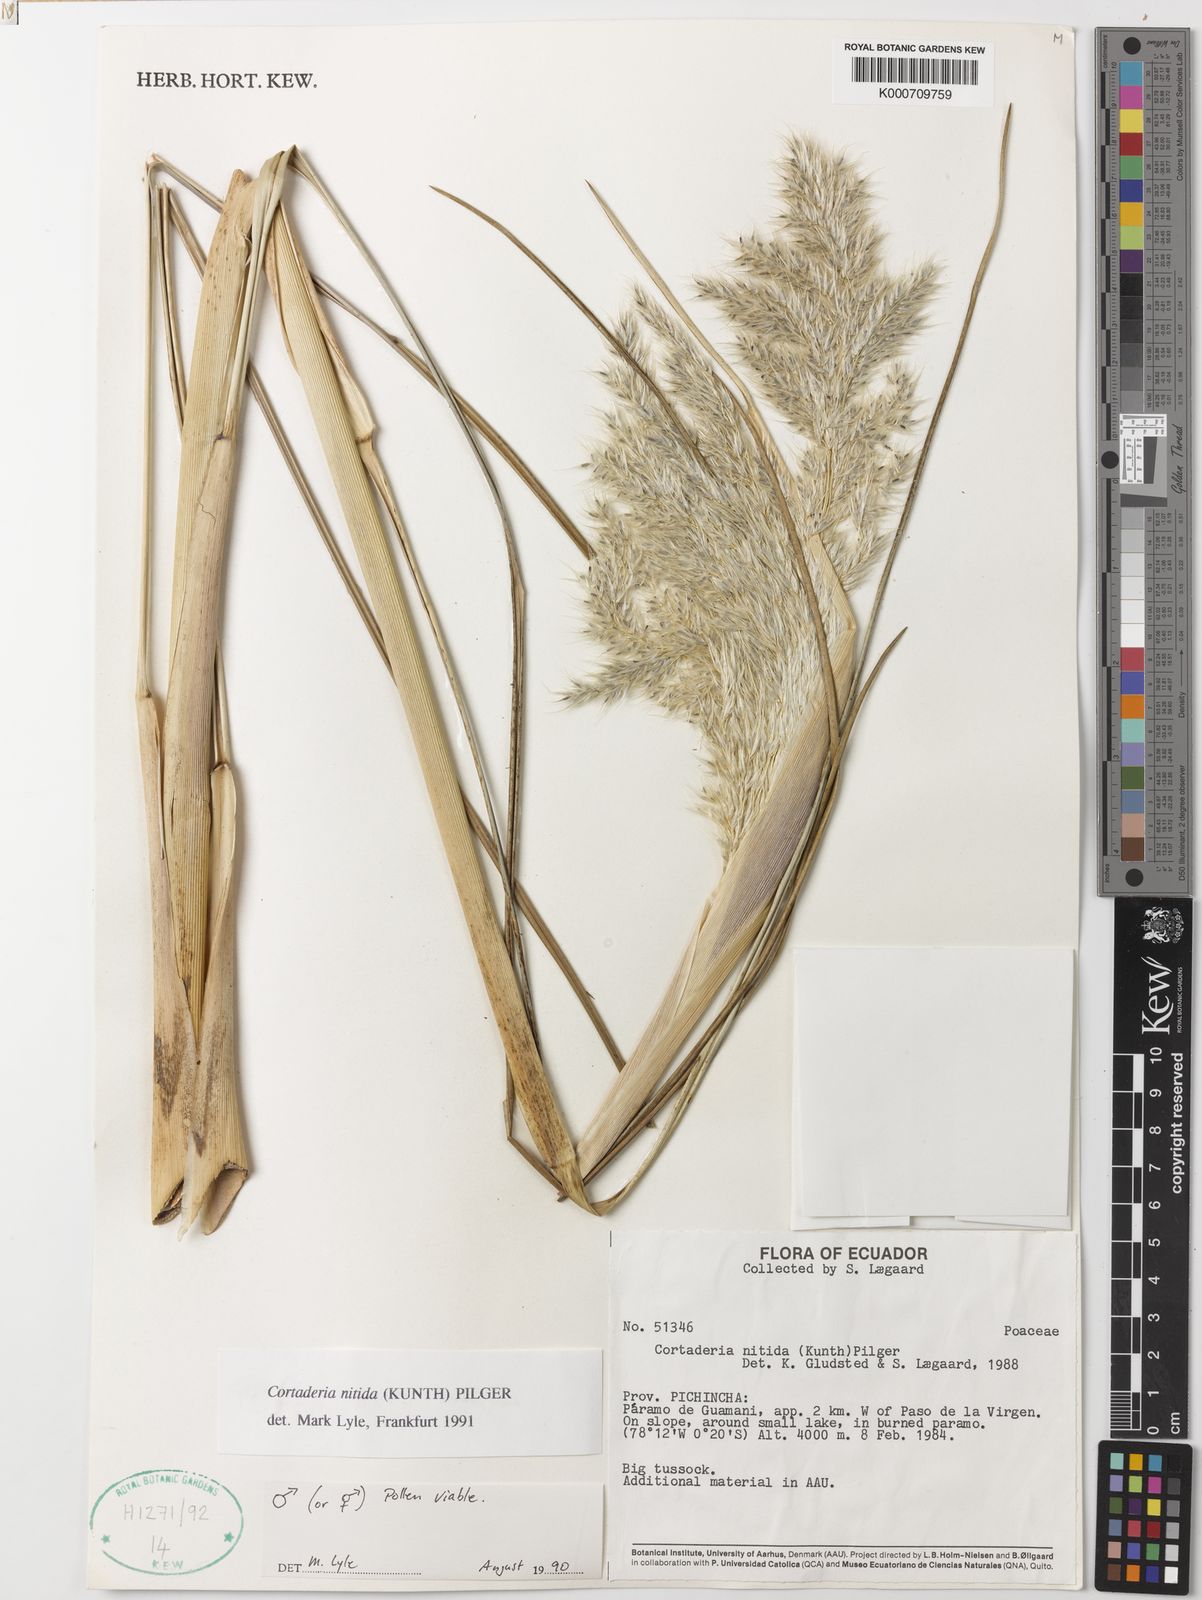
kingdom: Plantae
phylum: Tracheophyta
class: Liliopsida
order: Poales
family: Poaceae
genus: Cortaderia
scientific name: Cortaderia nitida
